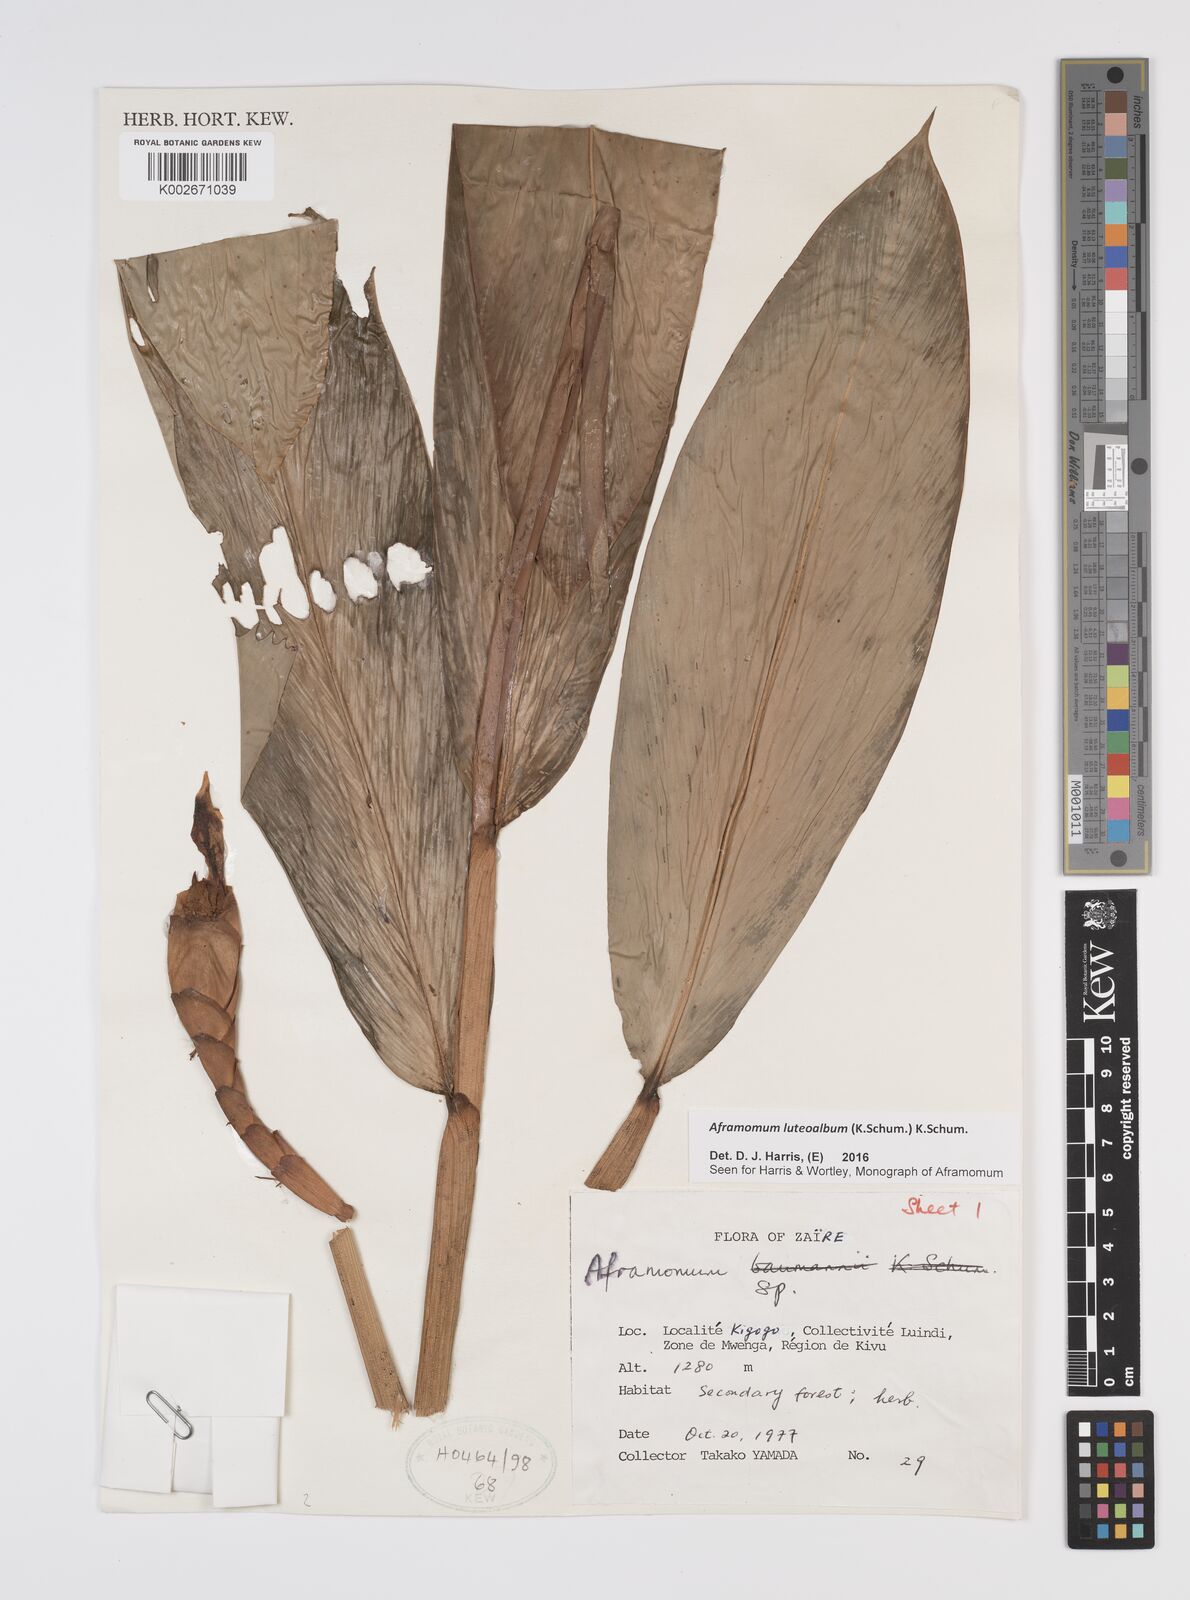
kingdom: Plantae
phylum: Tracheophyta
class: Liliopsida
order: Zingiberales
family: Zingiberaceae
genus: Aframomum
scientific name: Aframomum luteoalbum
